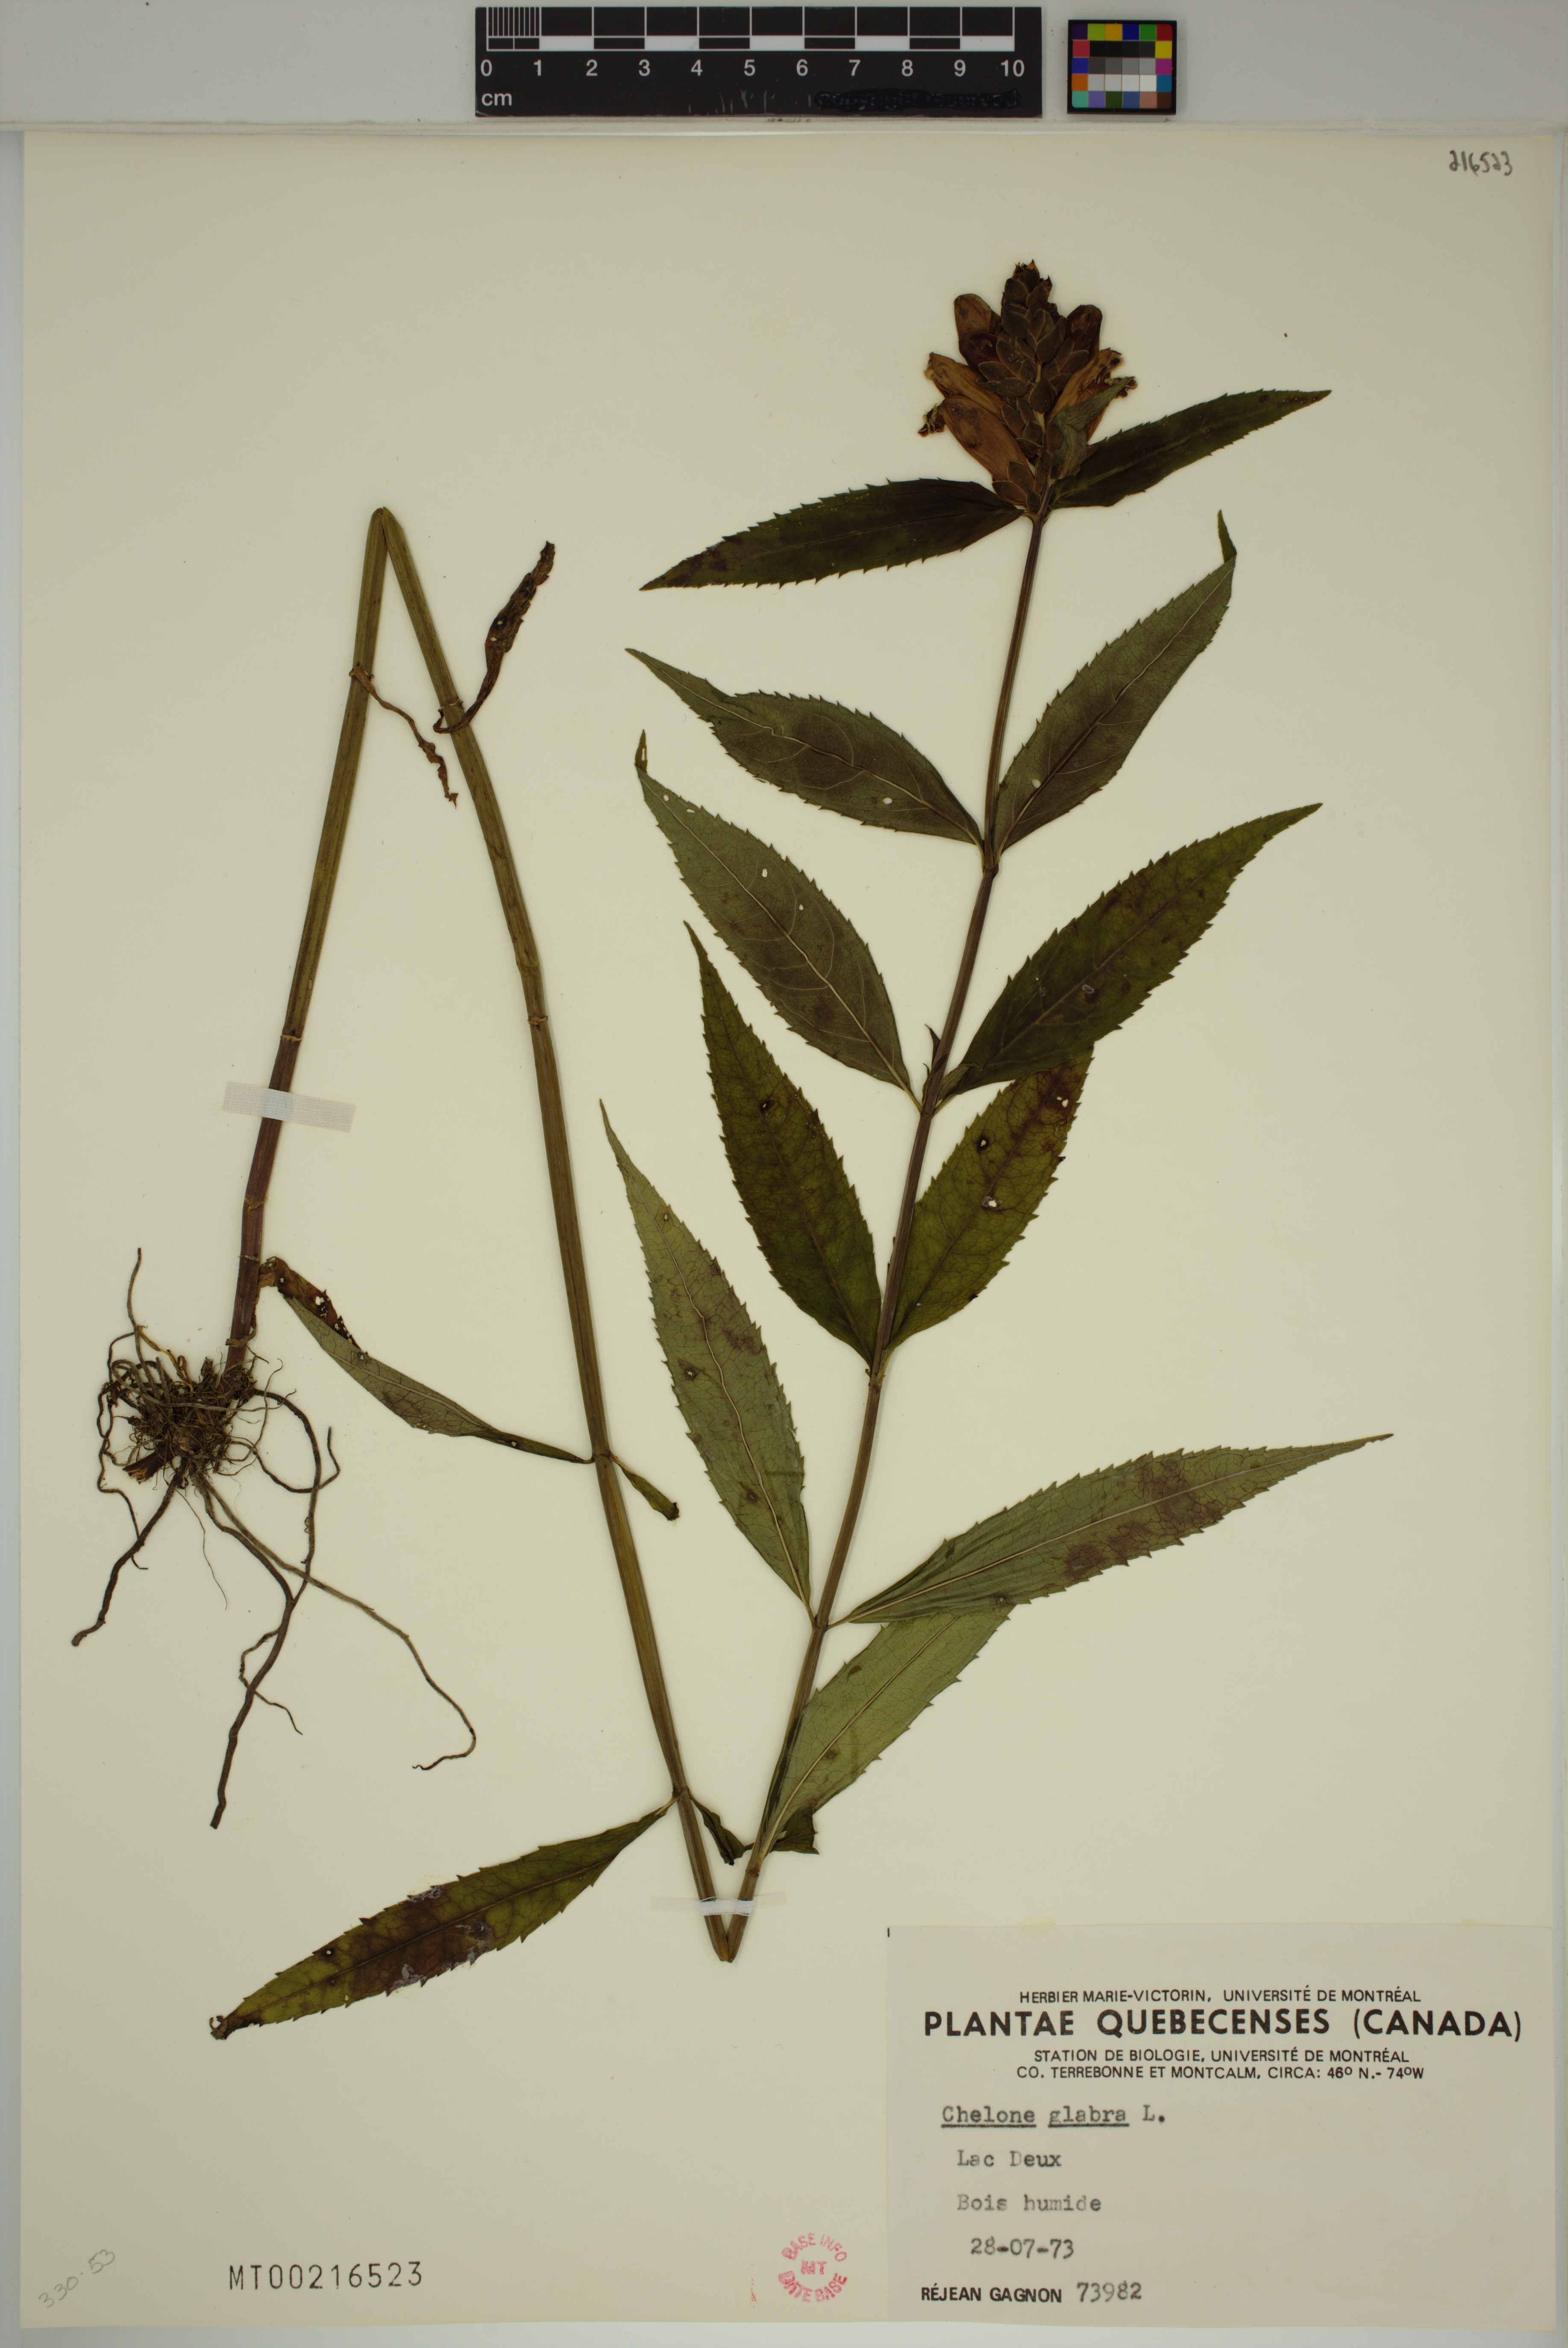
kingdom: Plantae
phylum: Tracheophyta
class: Magnoliopsida
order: Lamiales
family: Plantaginaceae
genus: Chelone
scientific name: Chelone glabra
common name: Snakehead
